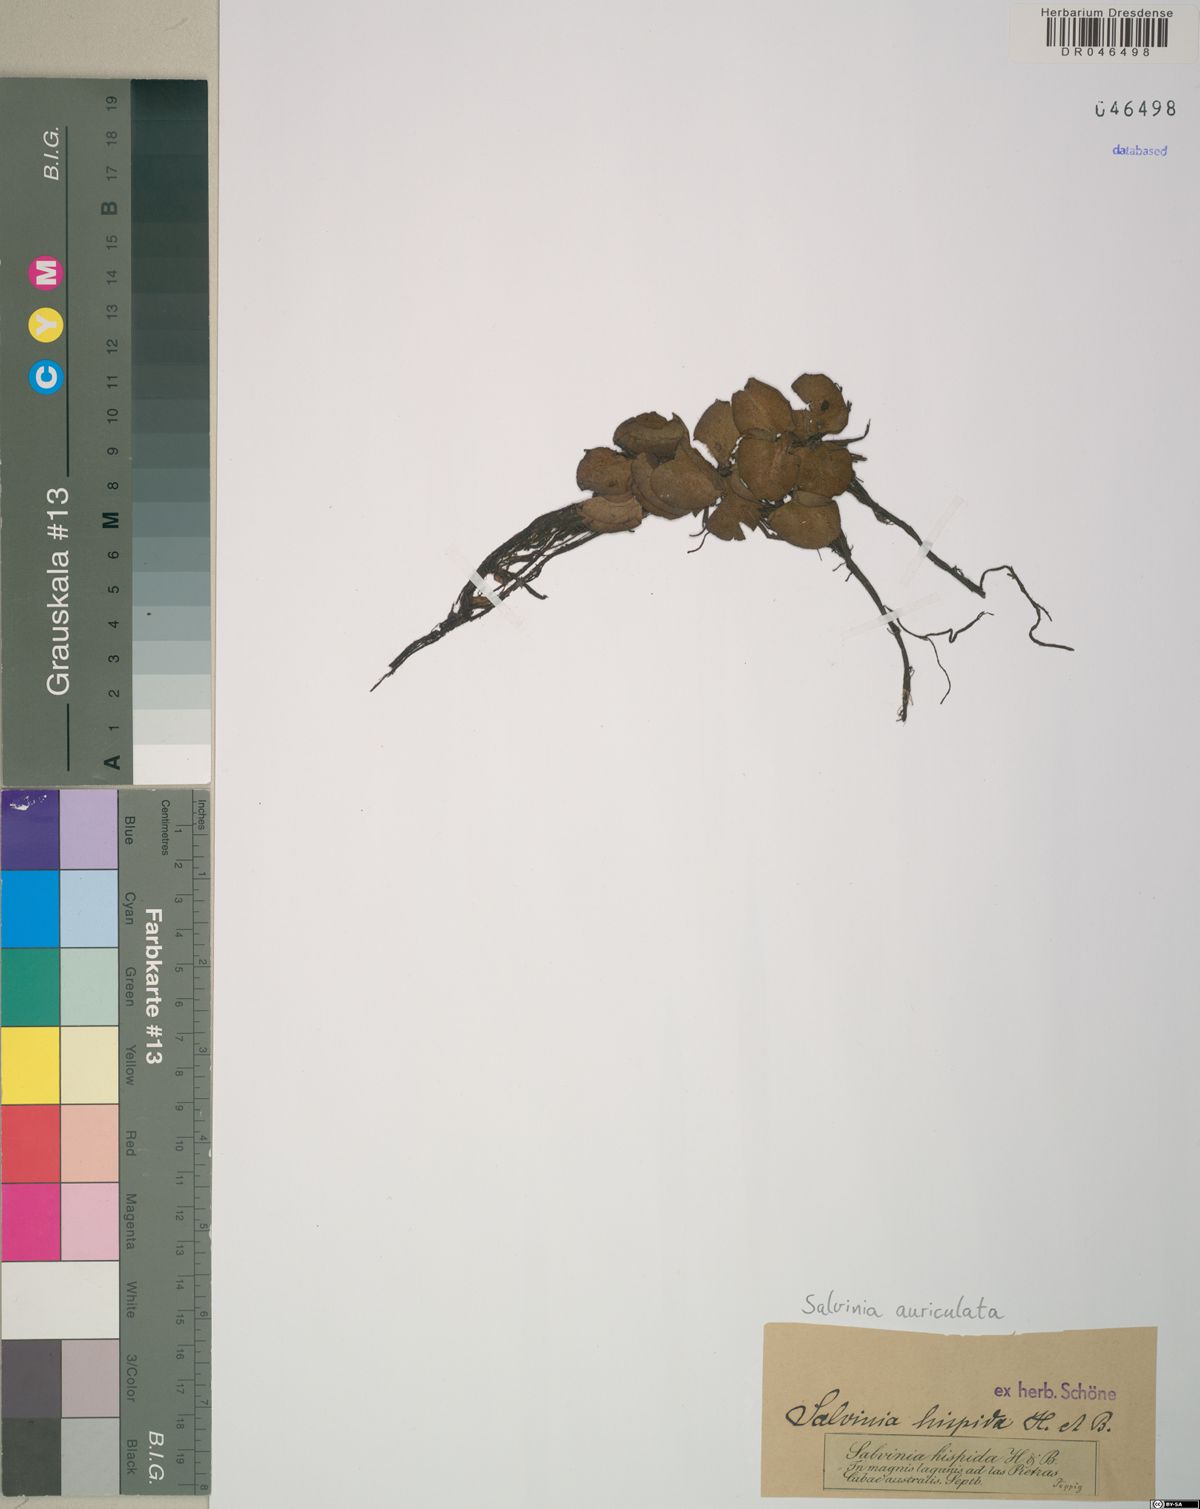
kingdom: Plantae
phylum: Tracheophyta
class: Polypodiopsida
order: Salviniales
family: Salviniaceae
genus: Salvinia
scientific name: Salvinia auriculata
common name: African payal
